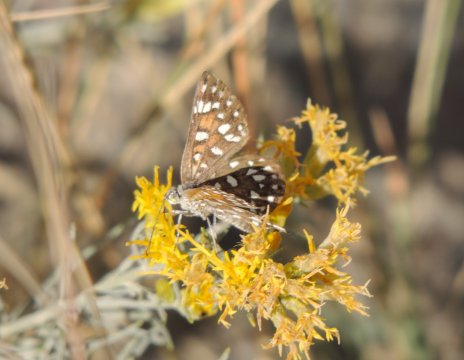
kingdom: Animalia
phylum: Arthropoda
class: Insecta
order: Lepidoptera
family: Riodinidae
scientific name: Riodinidae
